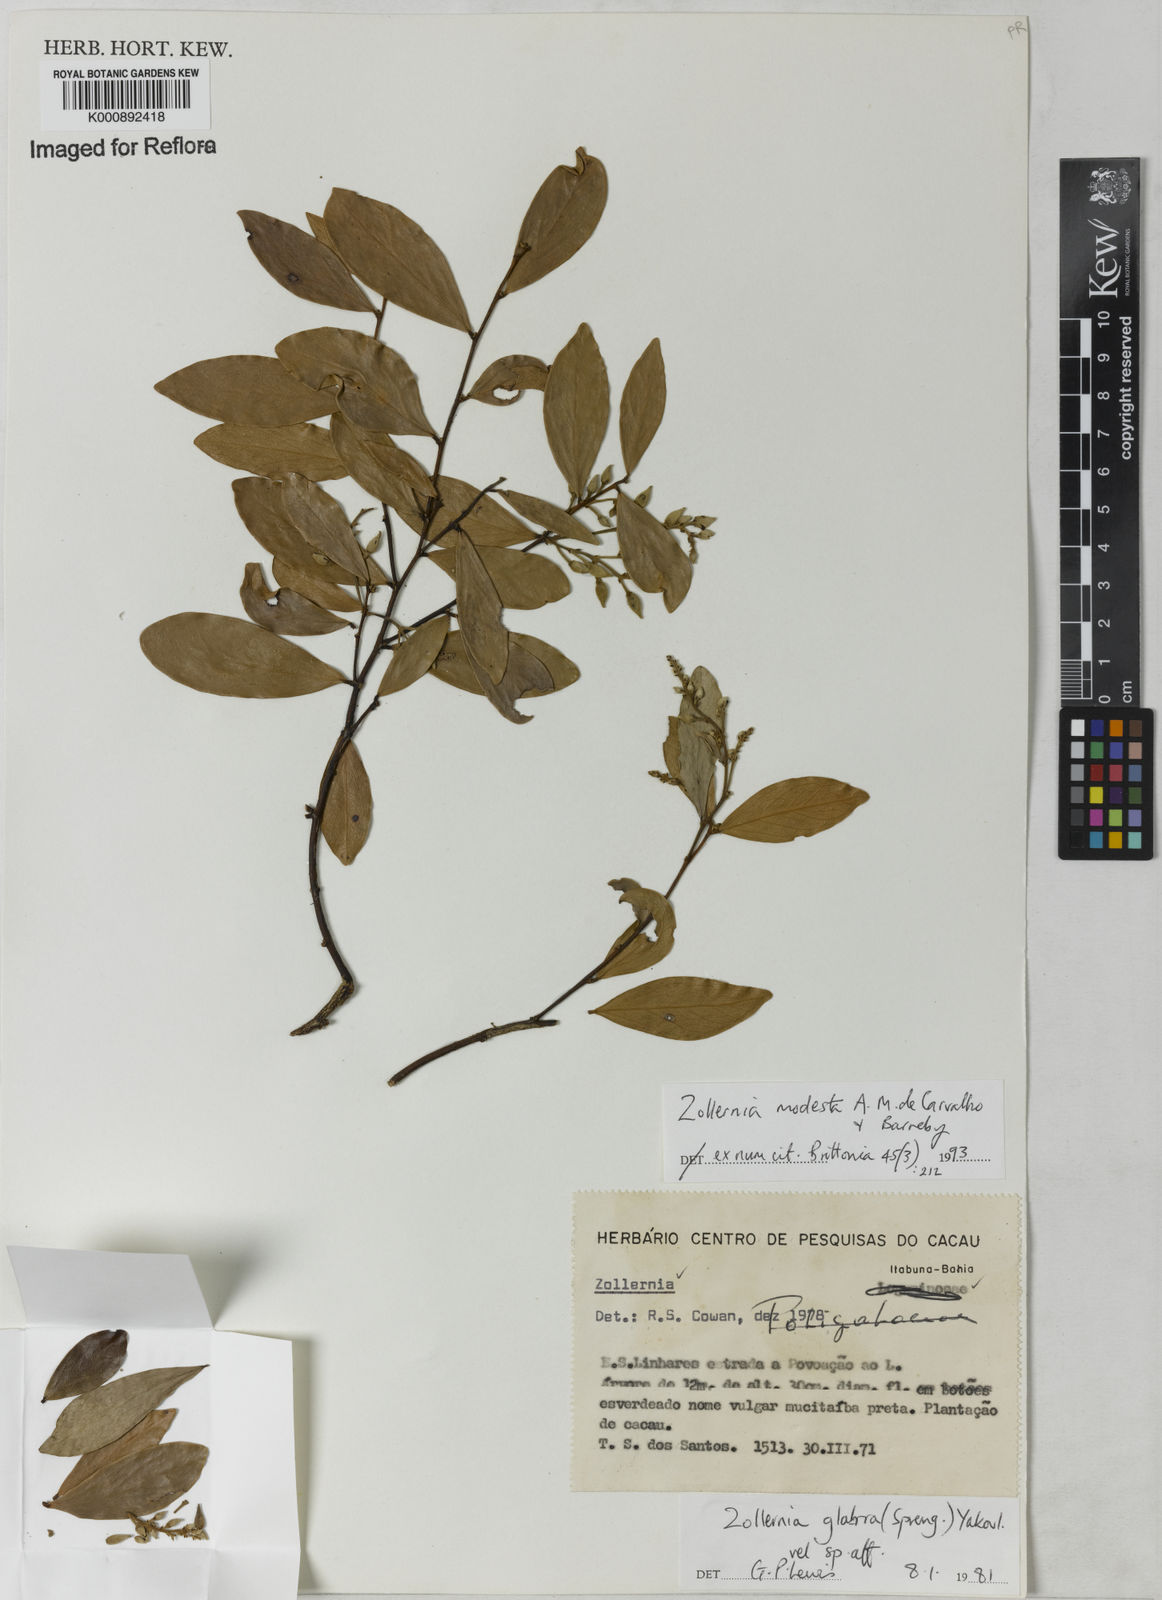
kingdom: Plantae
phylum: Tracheophyta
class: Magnoliopsida
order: Fabales
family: Fabaceae
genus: Zollernia
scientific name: Zollernia modesta
